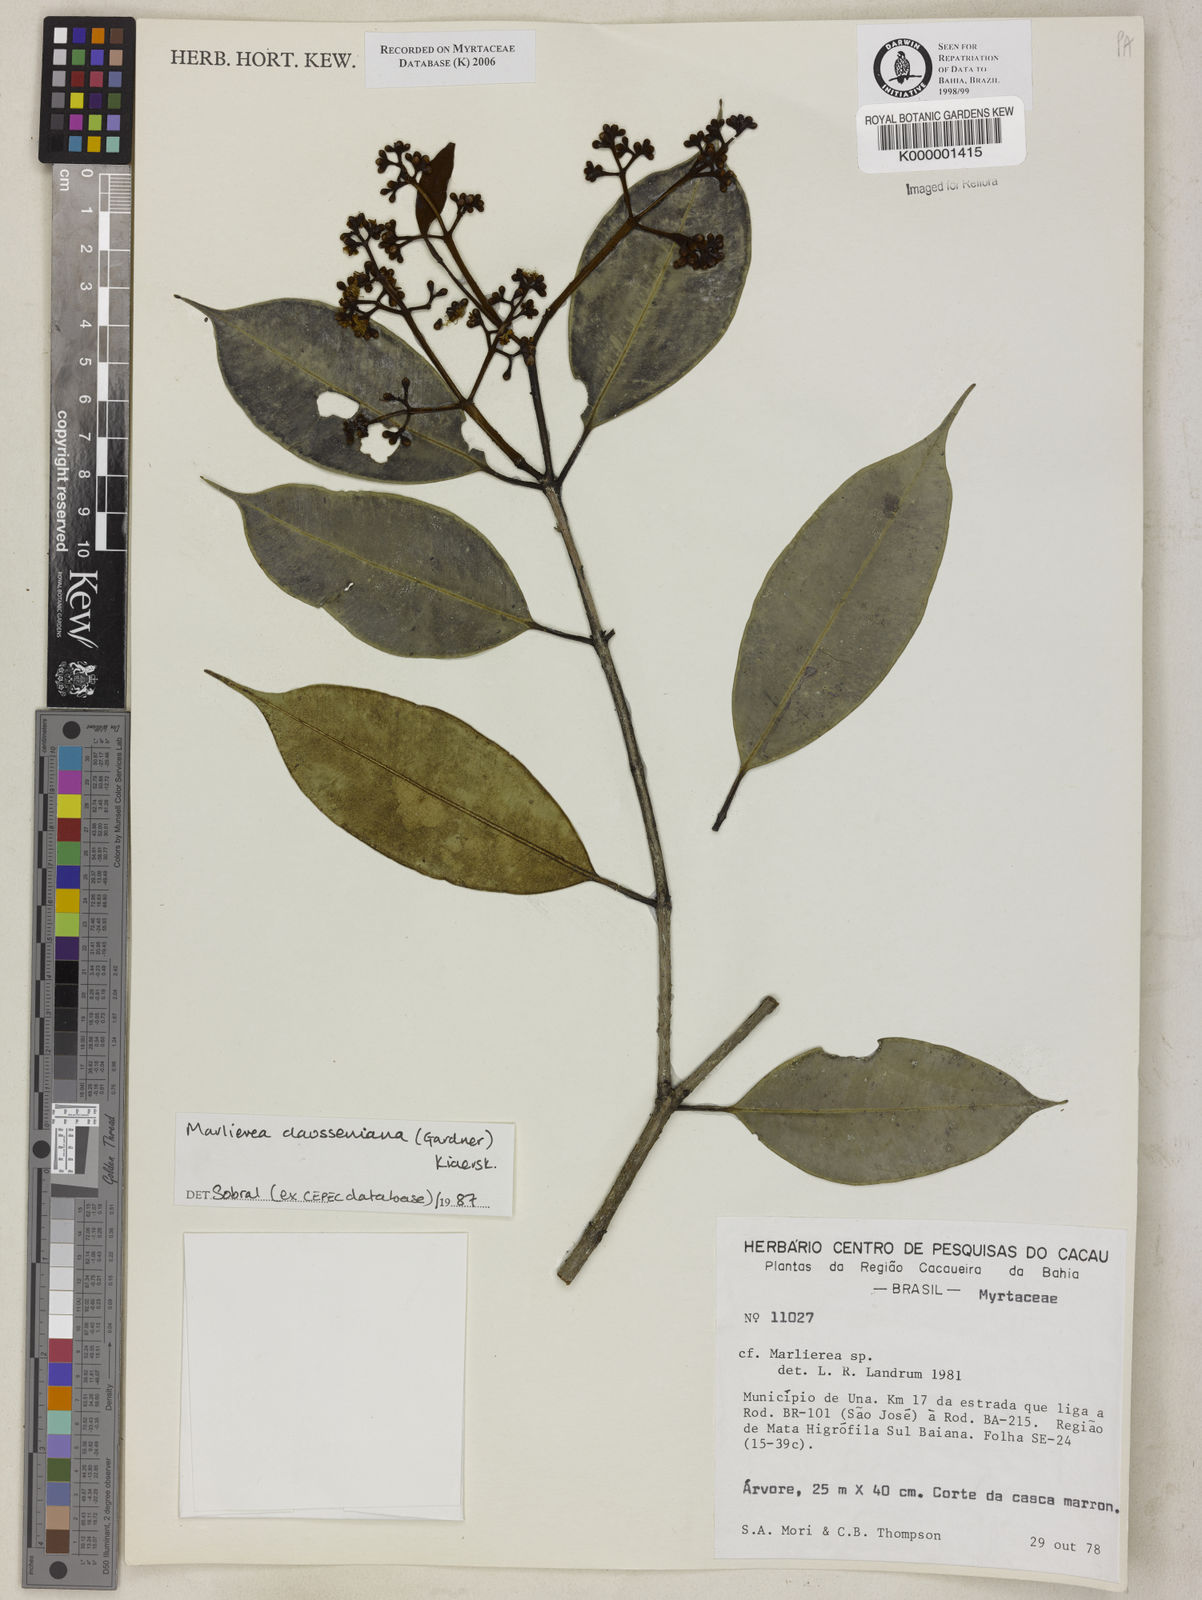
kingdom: Plantae
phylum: Tracheophyta
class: Magnoliopsida
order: Myrtales
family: Myrtaceae
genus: Marlierea
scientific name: Marlierea
